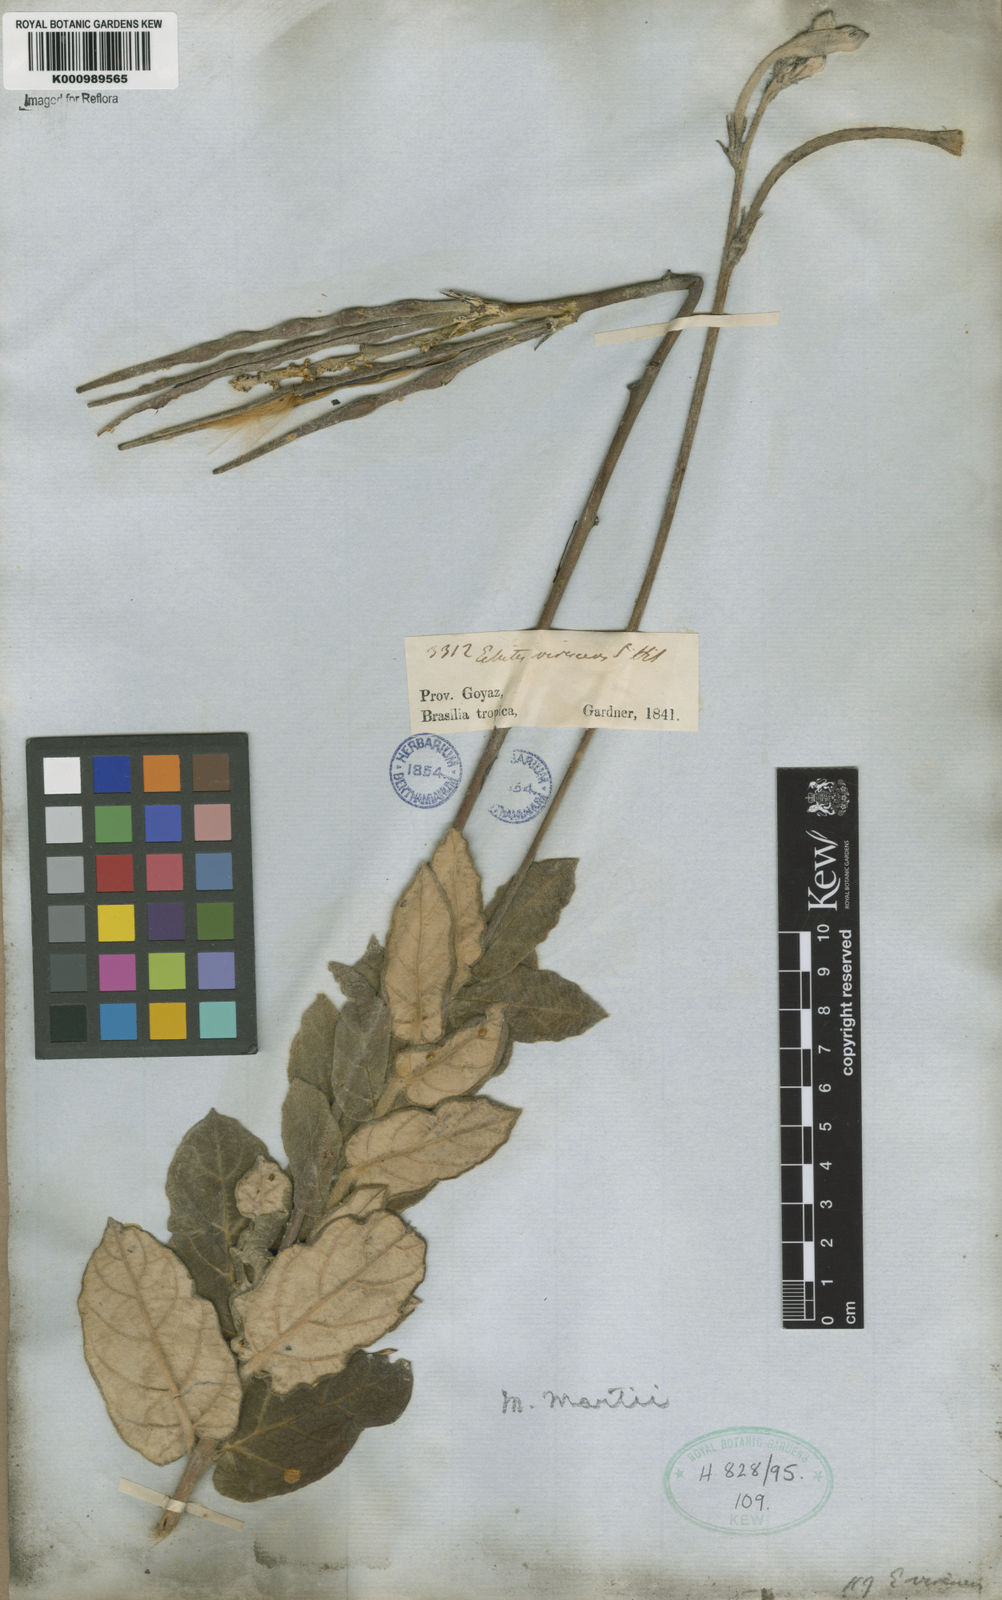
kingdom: Plantae
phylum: Tracheophyta
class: Magnoliopsida
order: Gentianales
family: Apocynaceae
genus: Mandevilla
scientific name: Mandevilla
